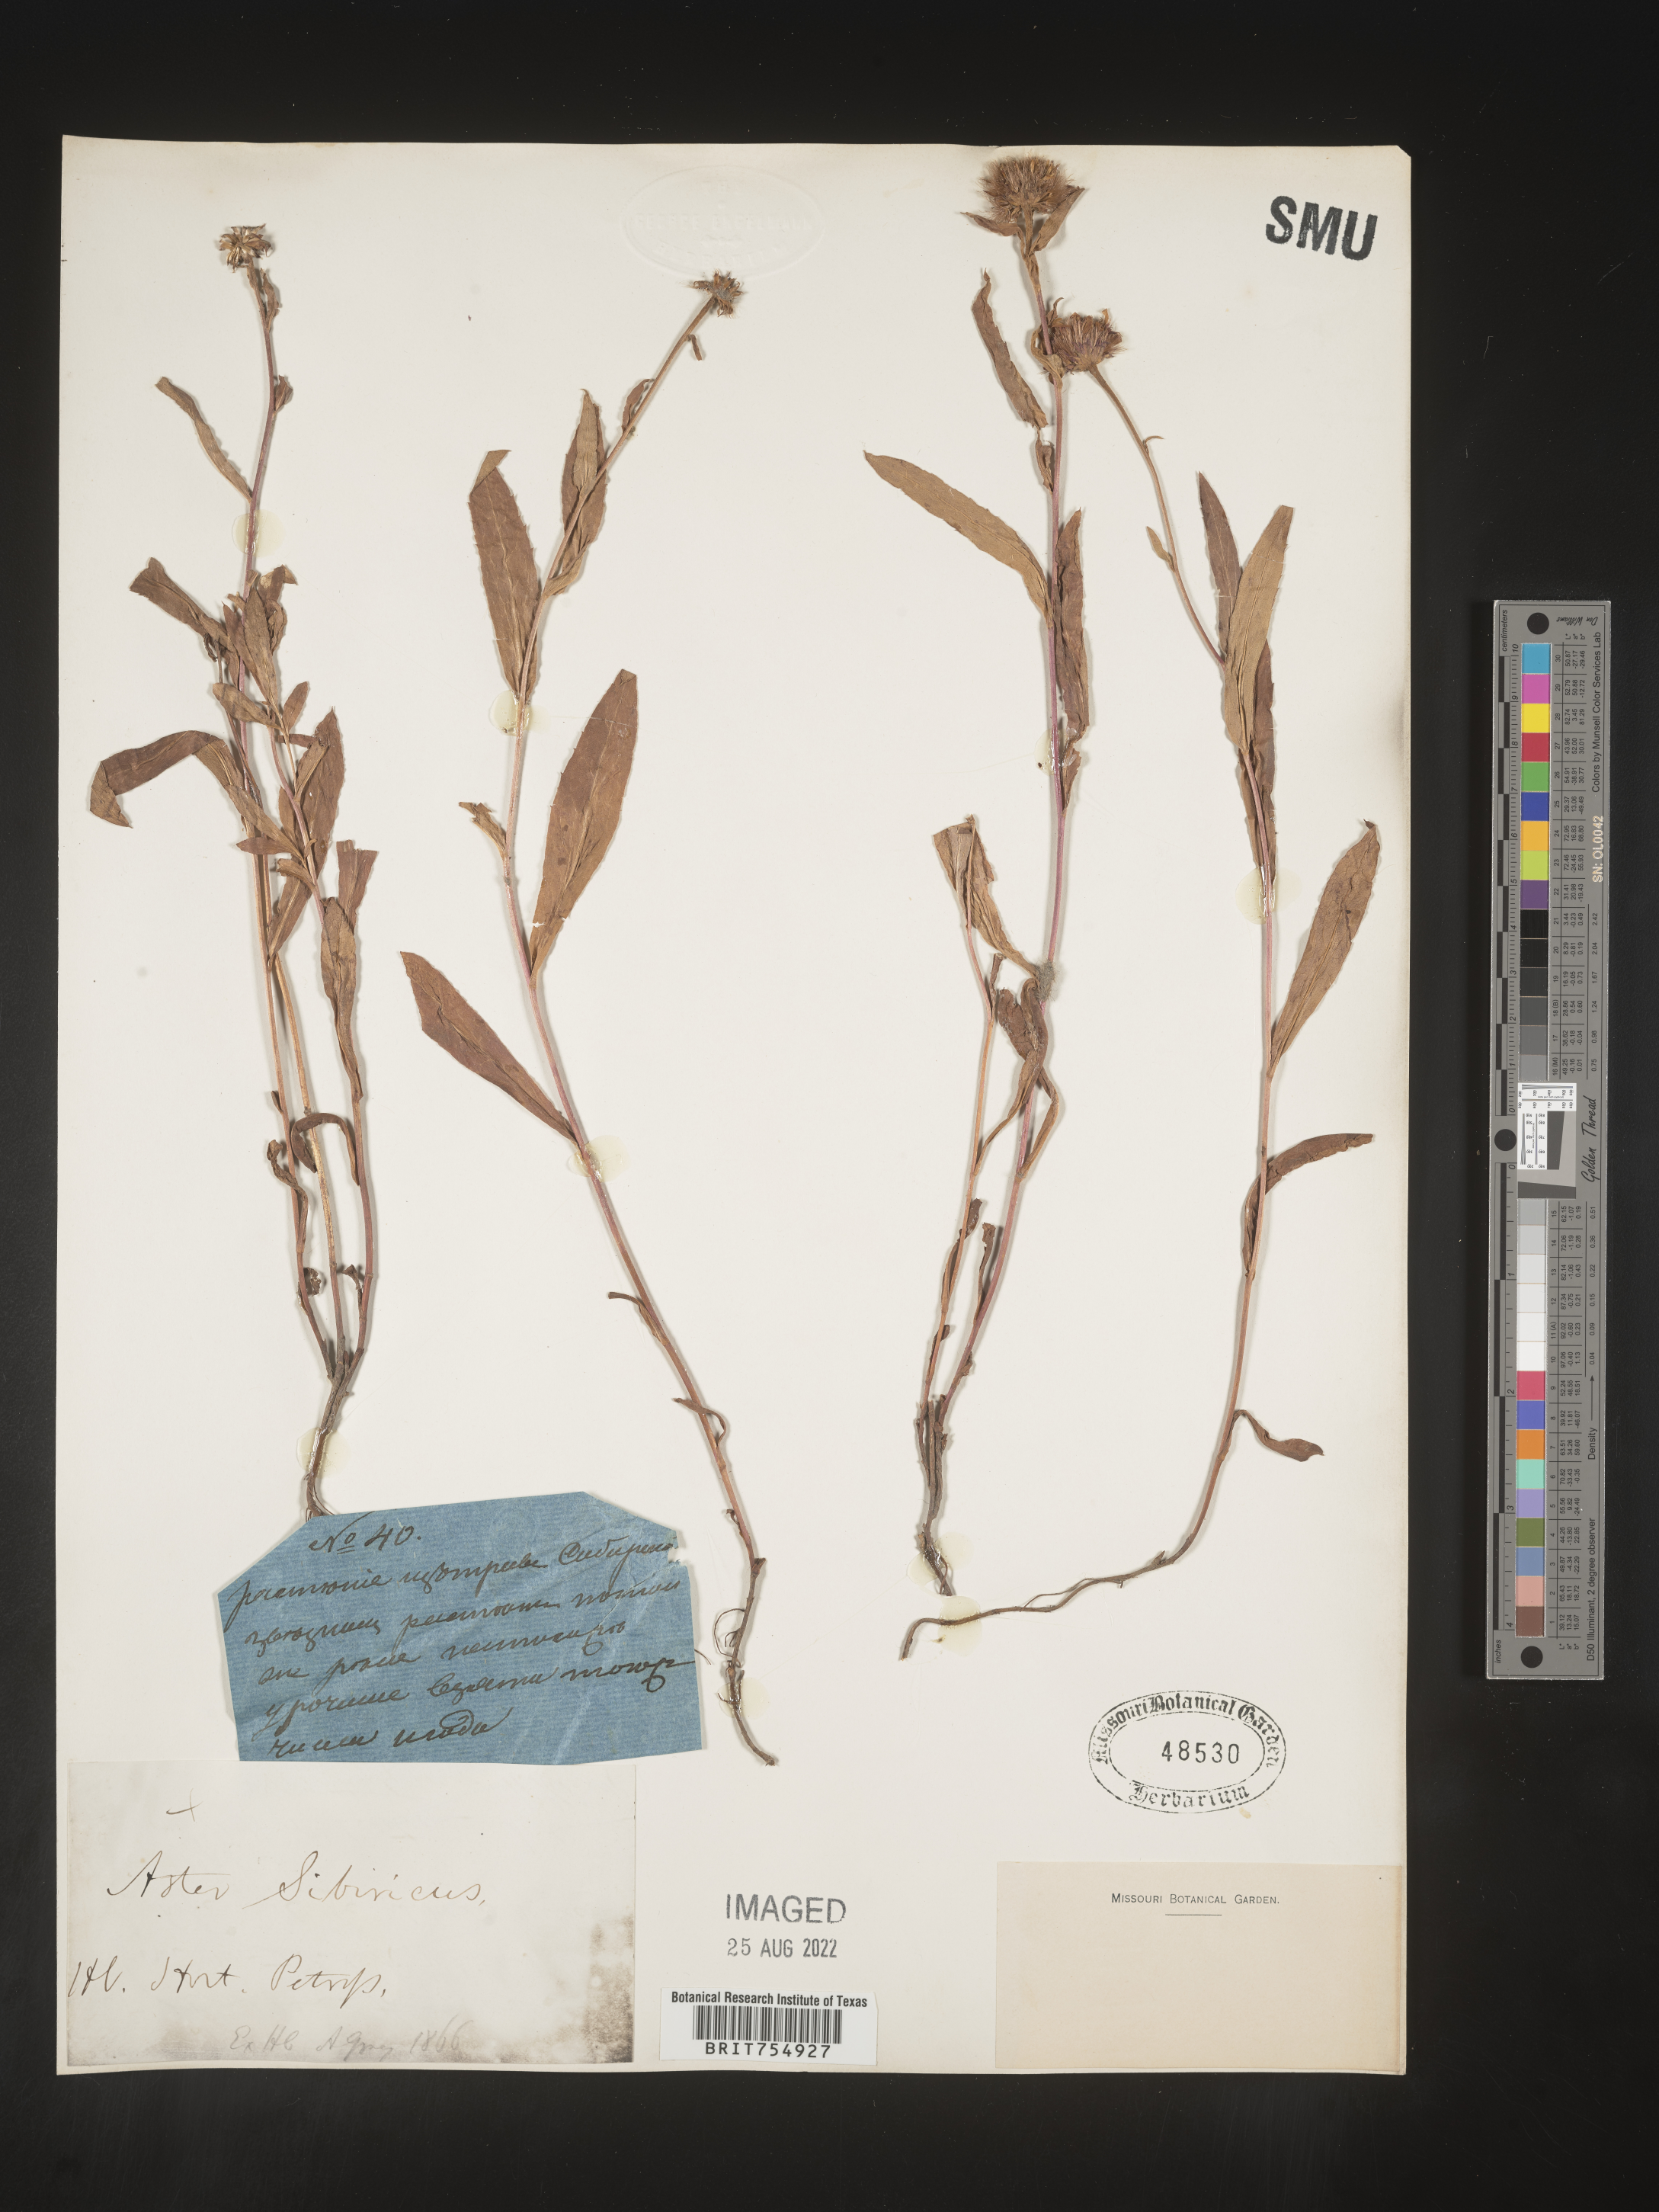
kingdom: Plantae
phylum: Tracheophyta
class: Magnoliopsida
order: Asterales
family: Asteraceae
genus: Symphyotrichum
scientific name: Symphyotrichum
